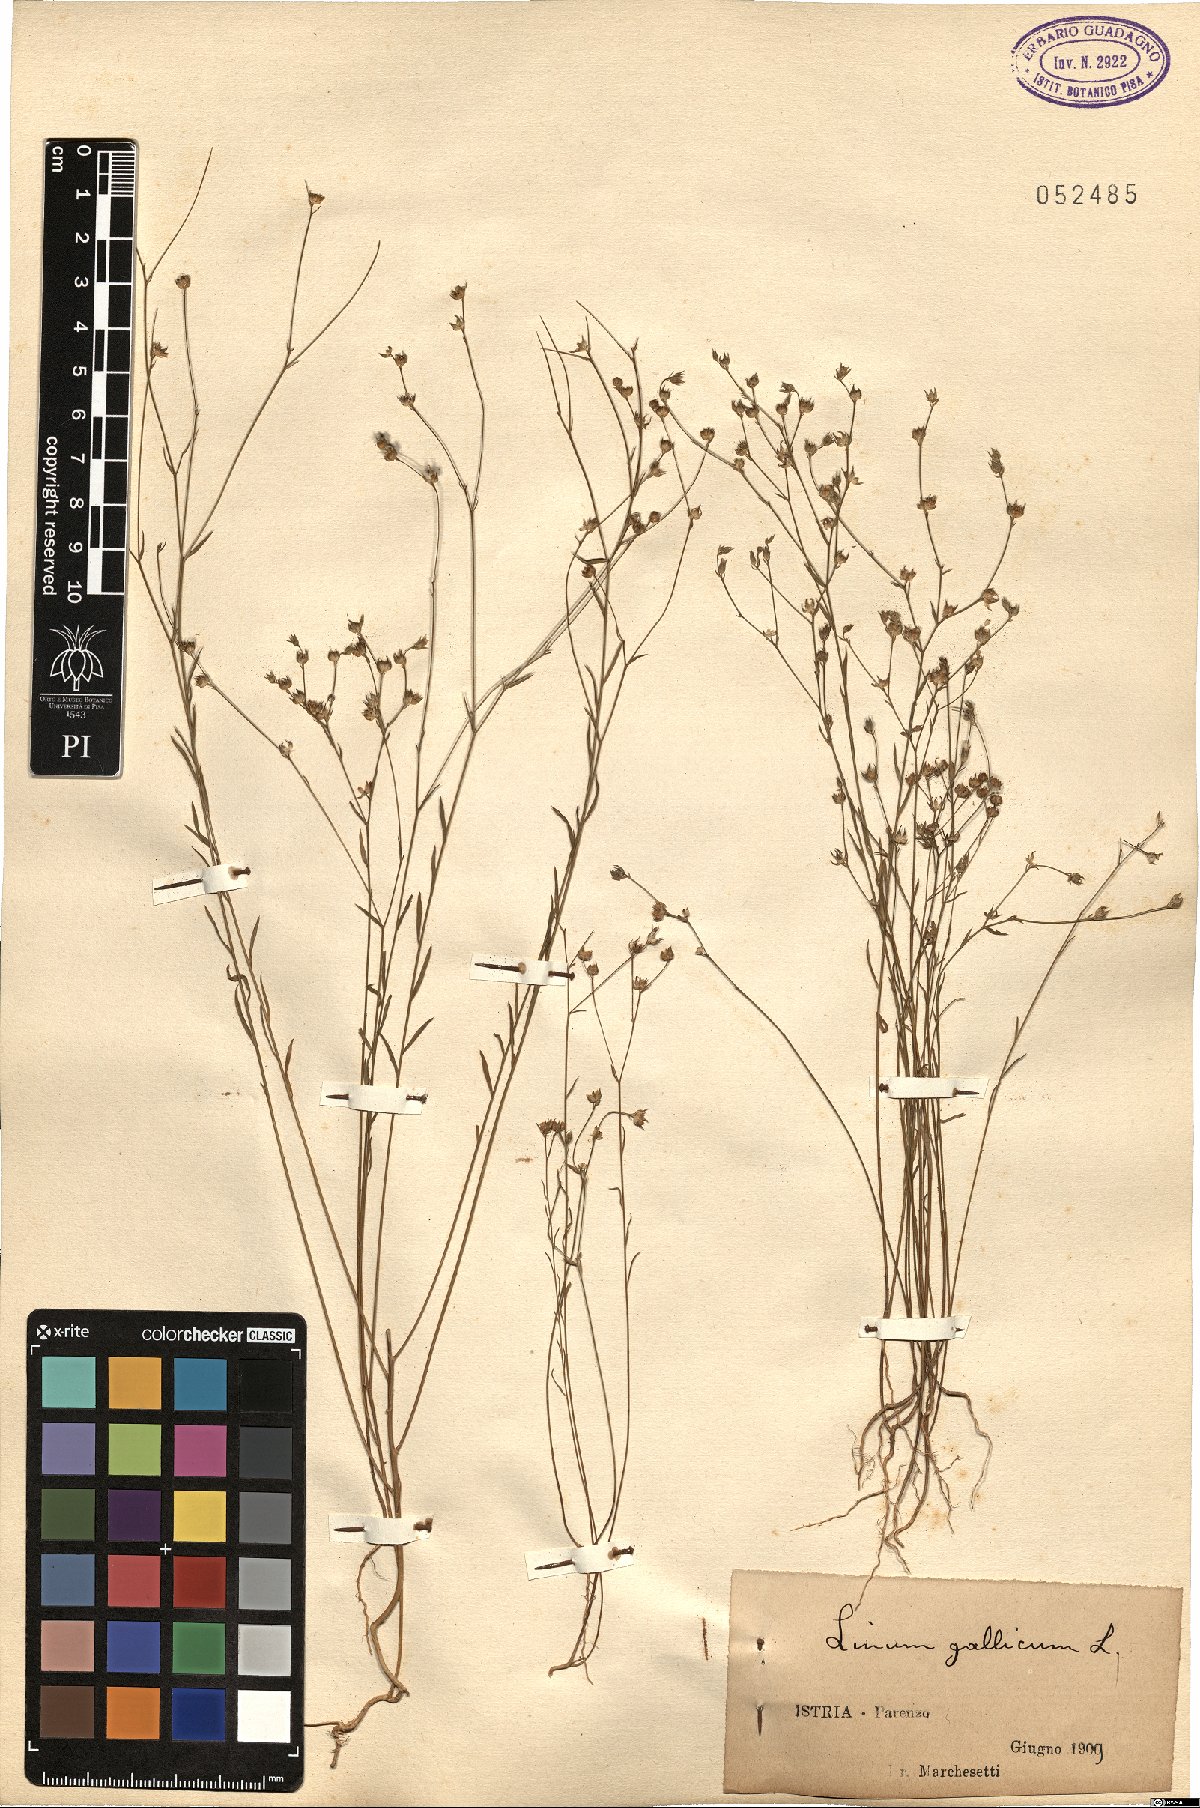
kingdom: Plantae
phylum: Tracheophyta
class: Magnoliopsida
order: Malpighiales
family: Linaceae
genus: Linum
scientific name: Linum trigynum
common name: French flax
